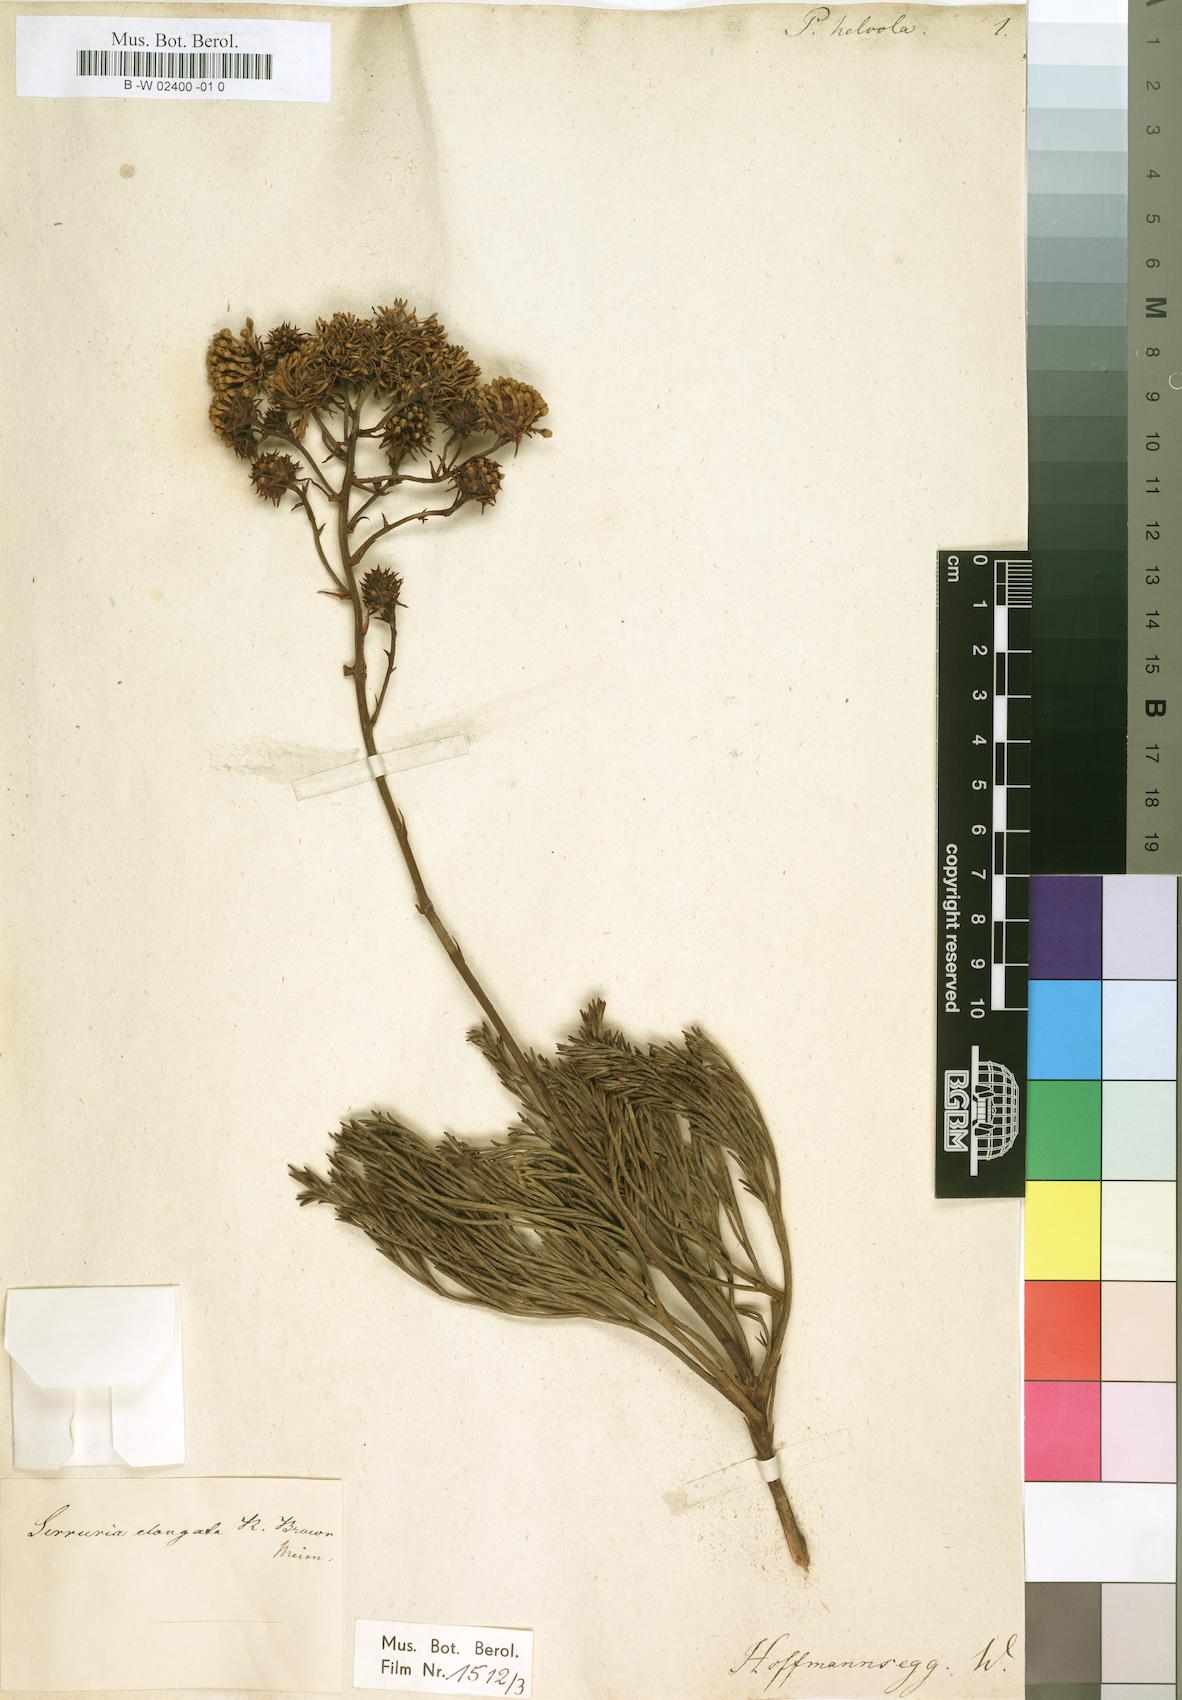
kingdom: Plantae
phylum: Tracheophyta
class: Magnoliopsida
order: Proteales
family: Proteaceae
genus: Serruria
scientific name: Serruria
